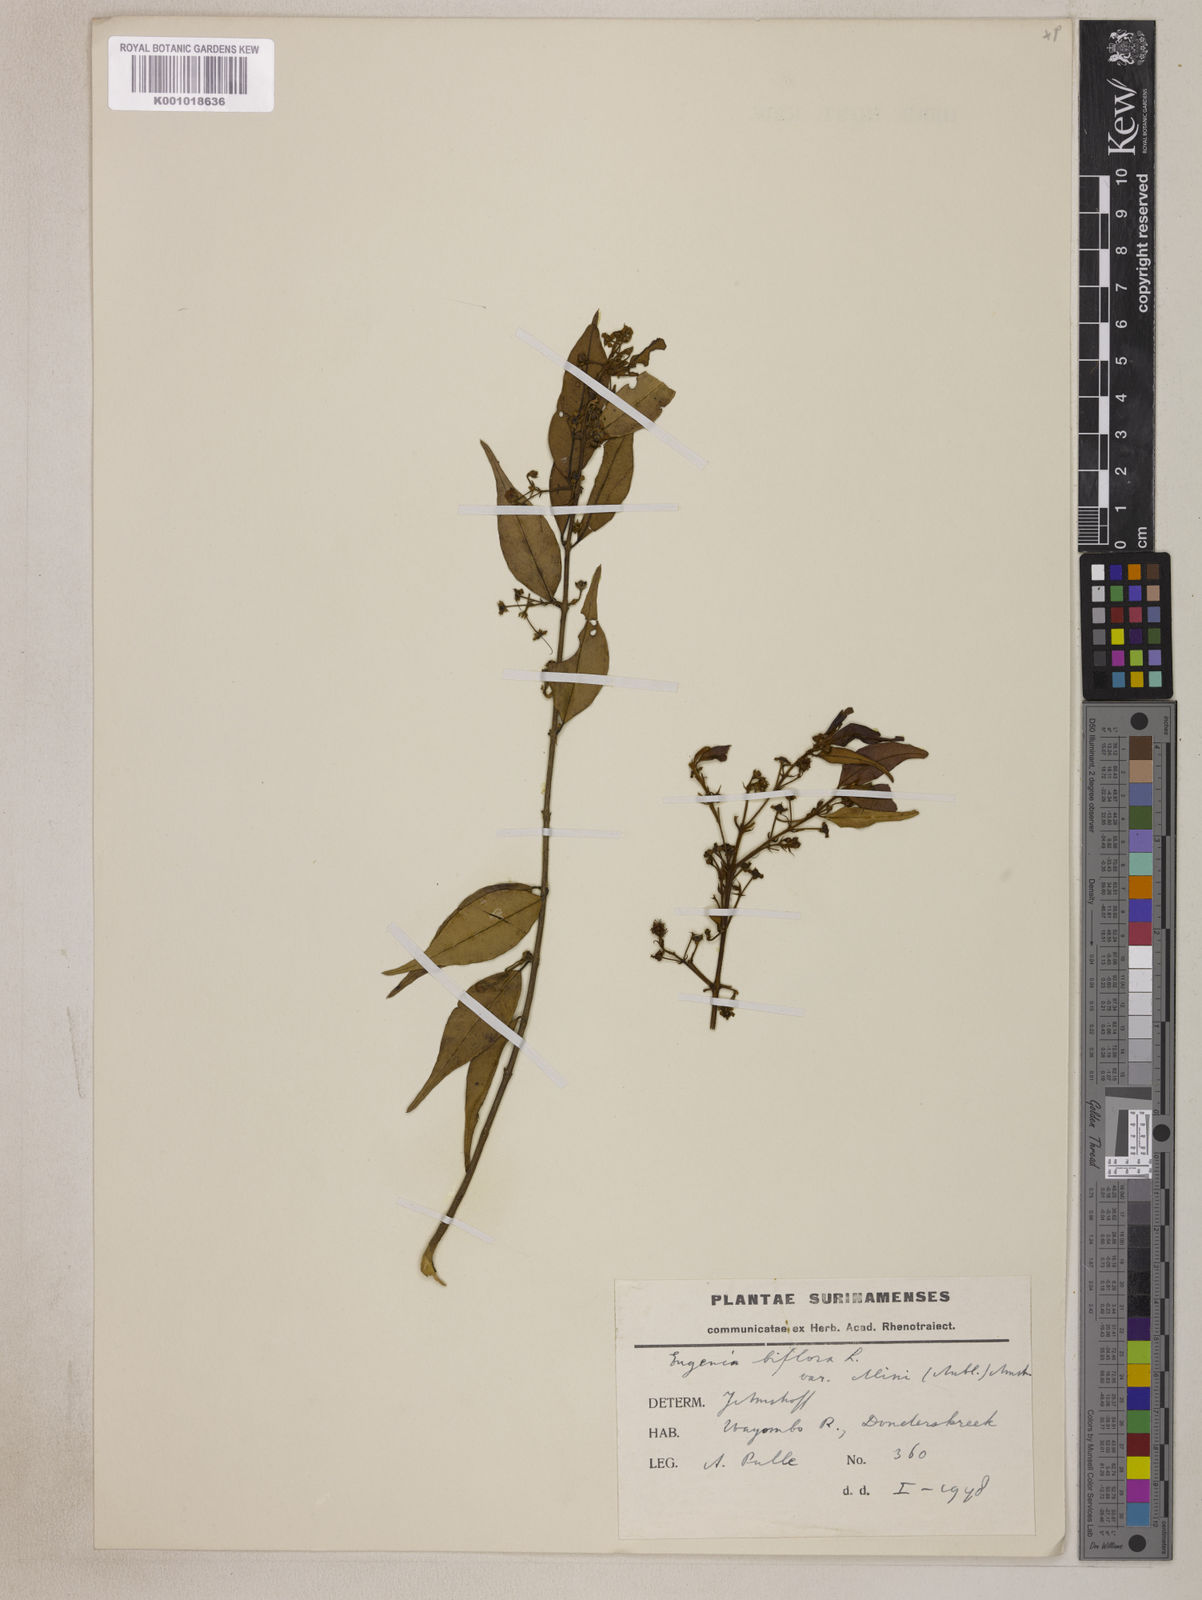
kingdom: Plantae
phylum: Tracheophyta
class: Magnoliopsida
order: Myrtales
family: Myrtaceae
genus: Eugenia
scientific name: Eugenia biflora
